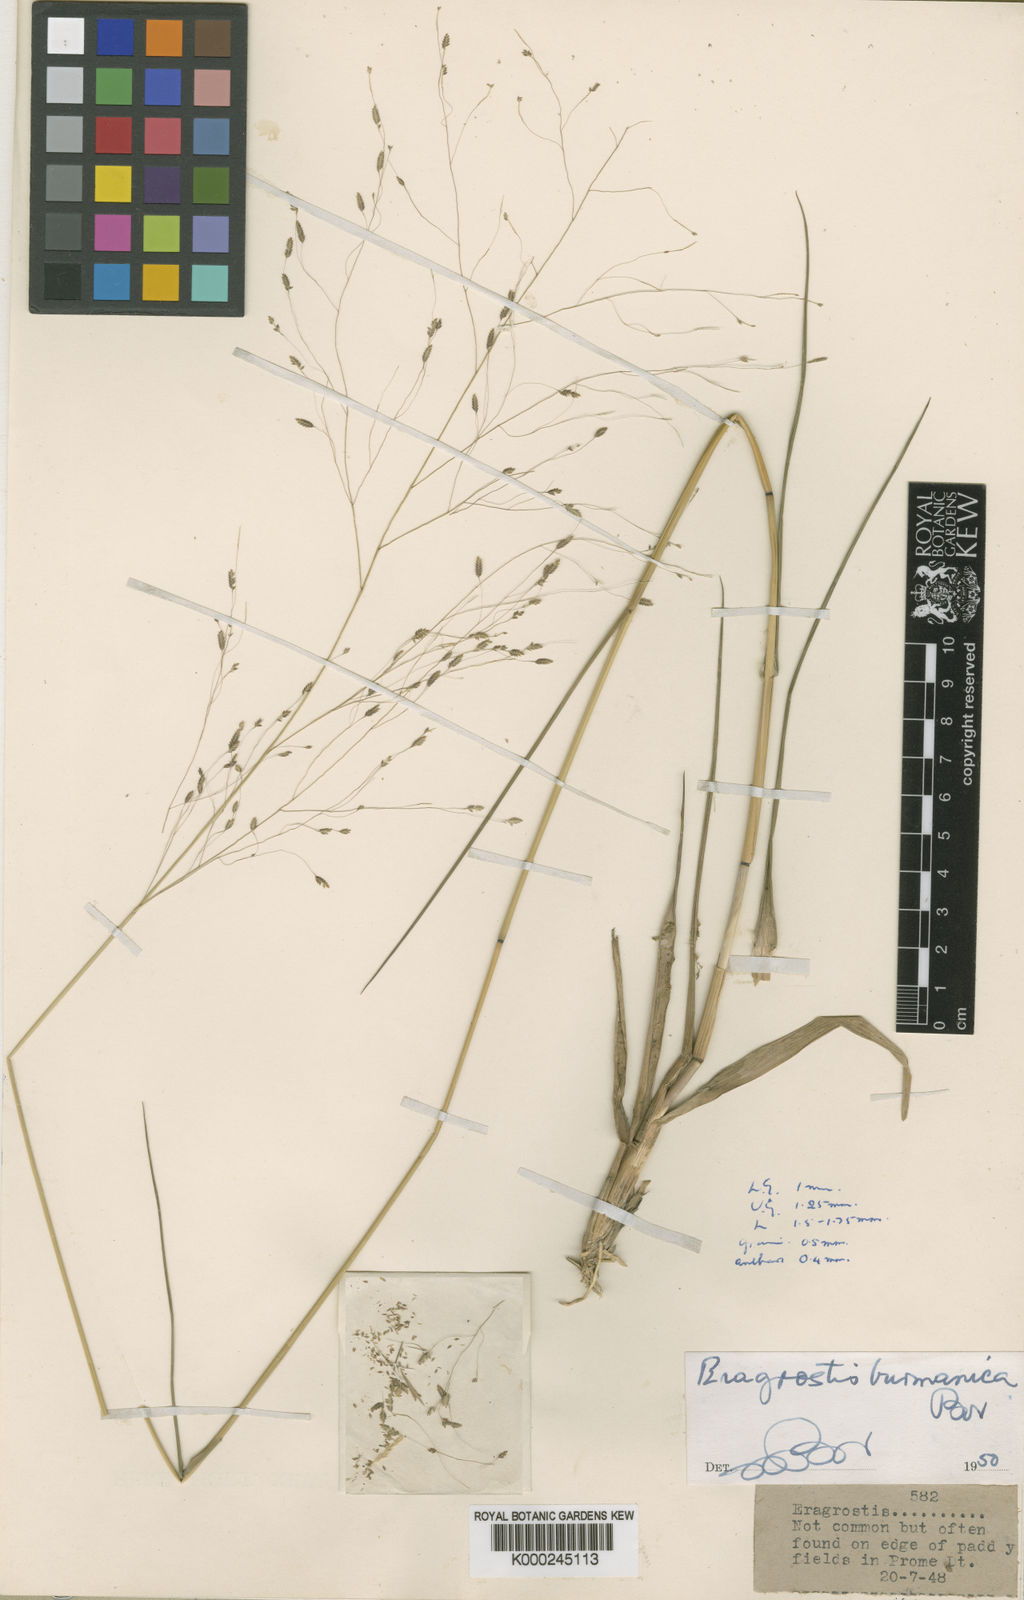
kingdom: Plantae
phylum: Tracheophyta
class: Liliopsida
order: Poales
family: Poaceae
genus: Eragrostis
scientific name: Eragrostis burmanica
